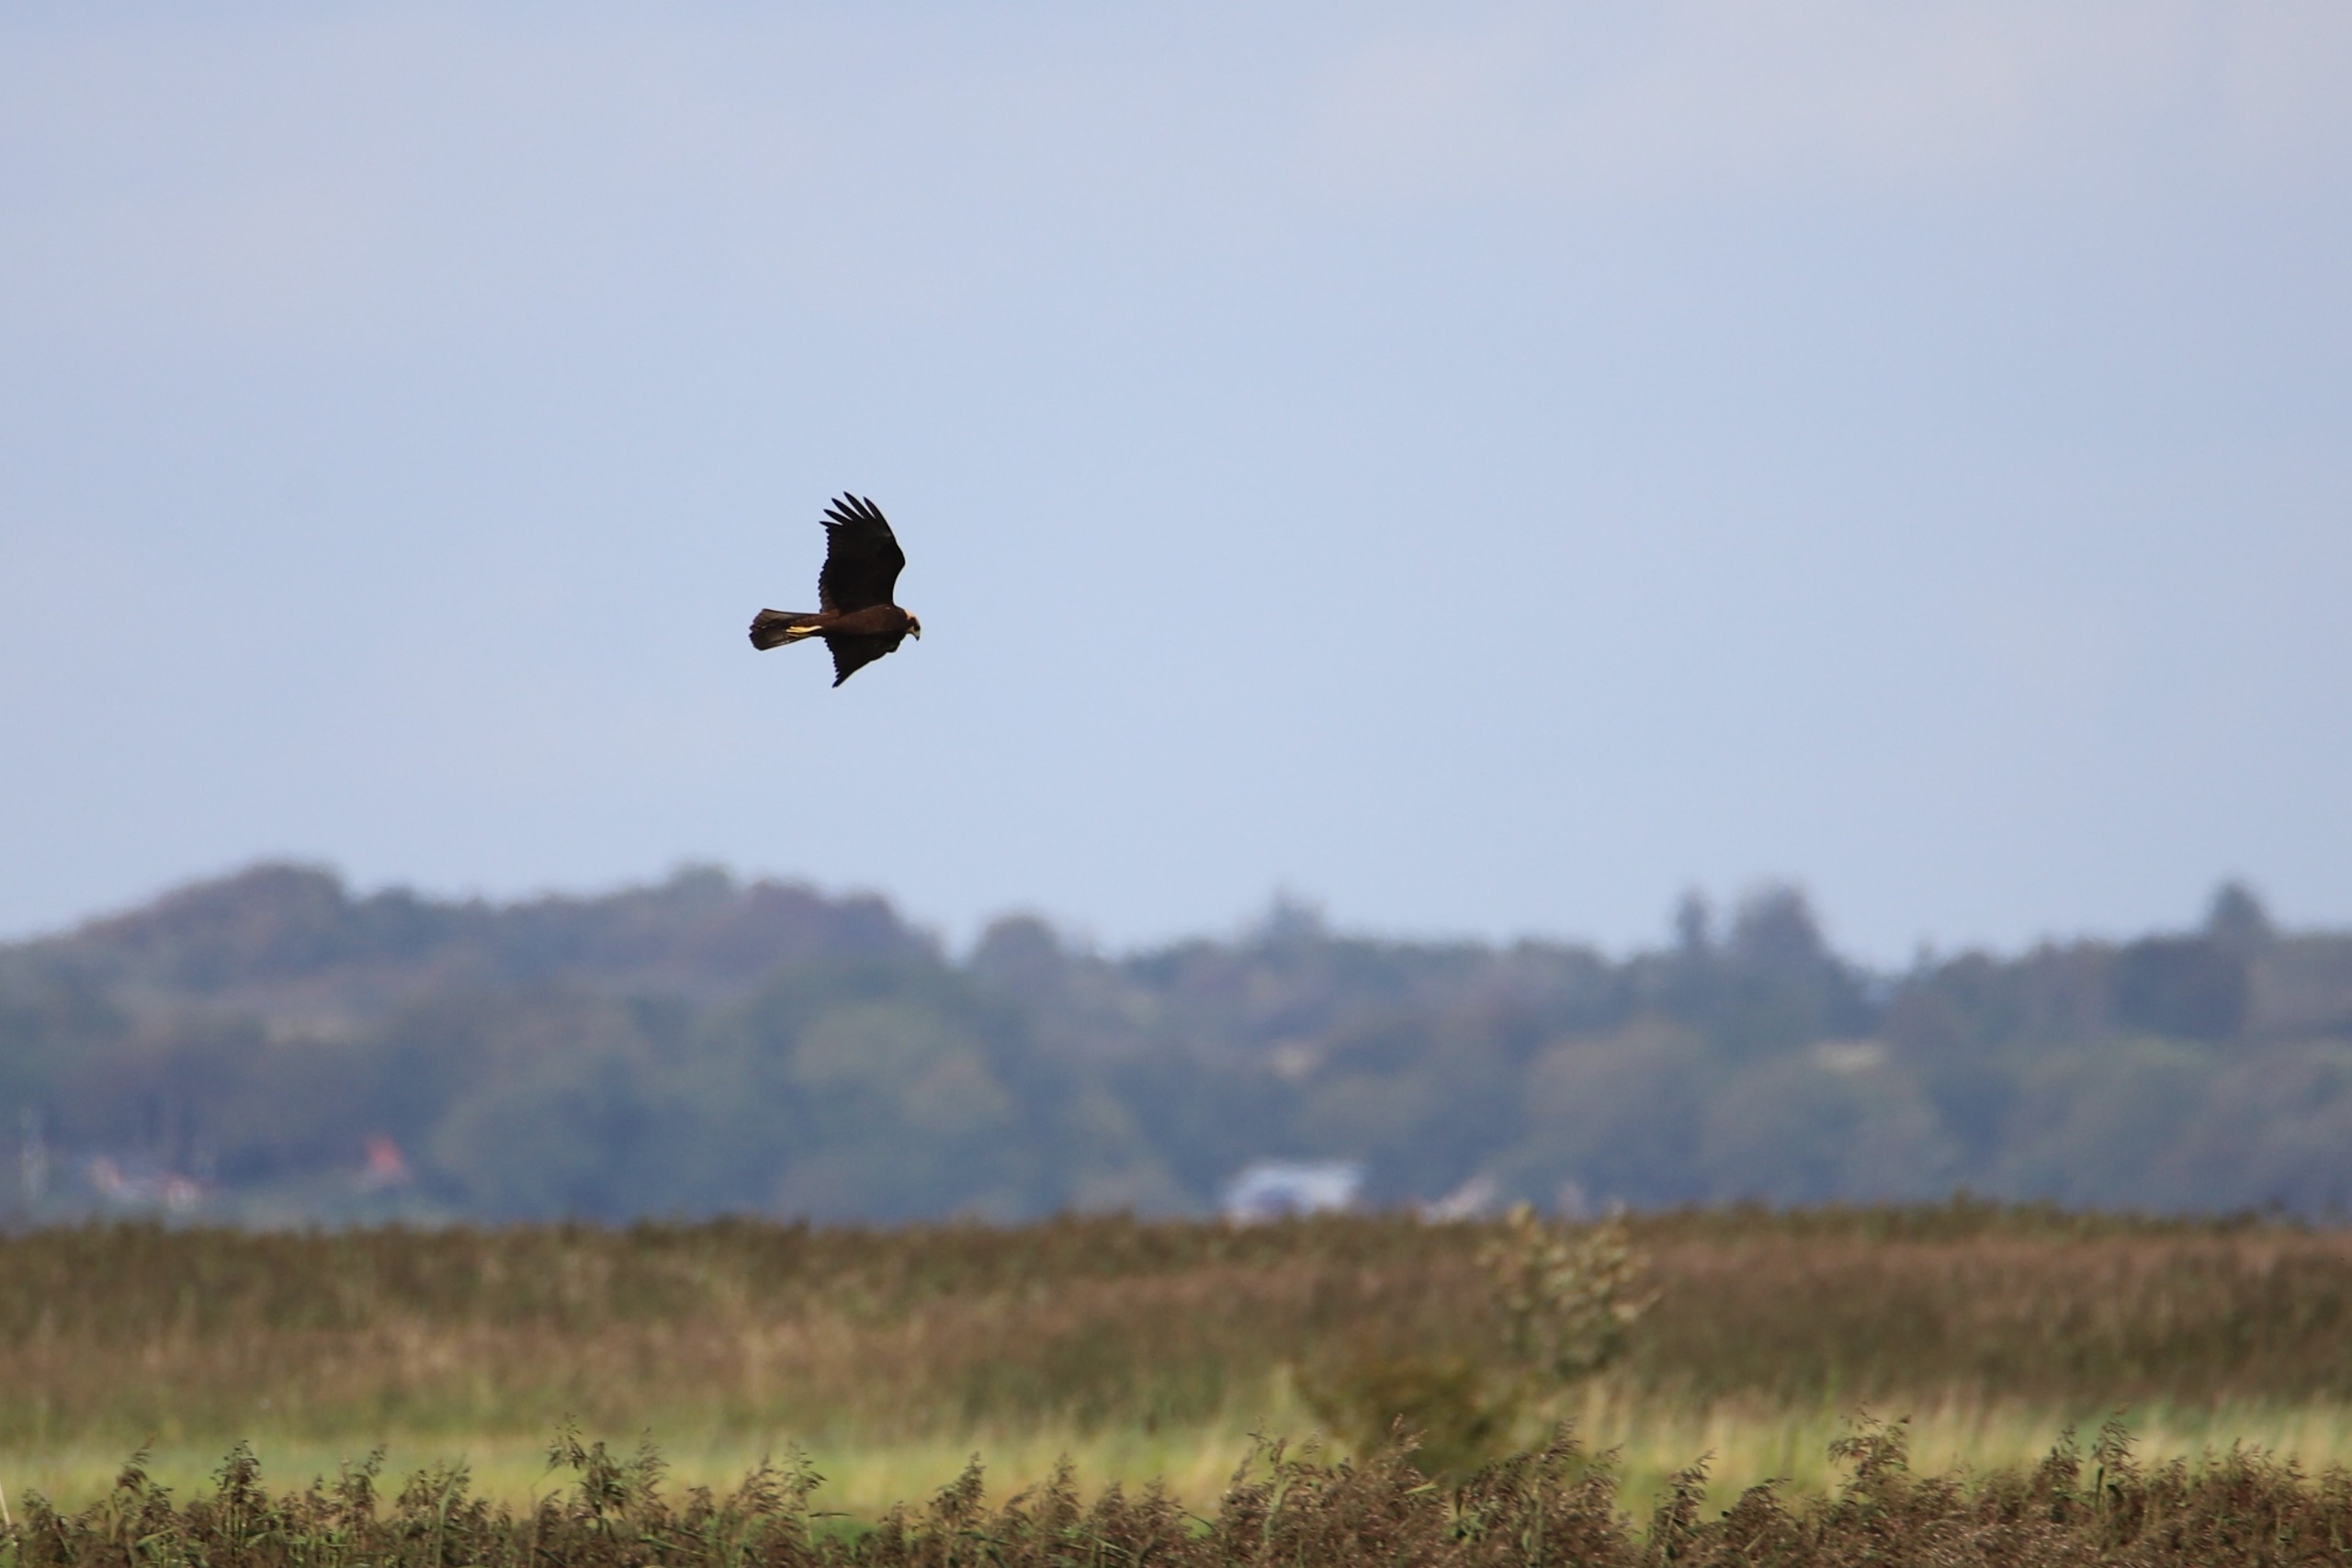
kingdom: Animalia
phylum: Chordata
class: Aves
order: Accipitriformes
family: Accipitridae
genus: Circus
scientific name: Circus aeruginosus
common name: Rørhøg
